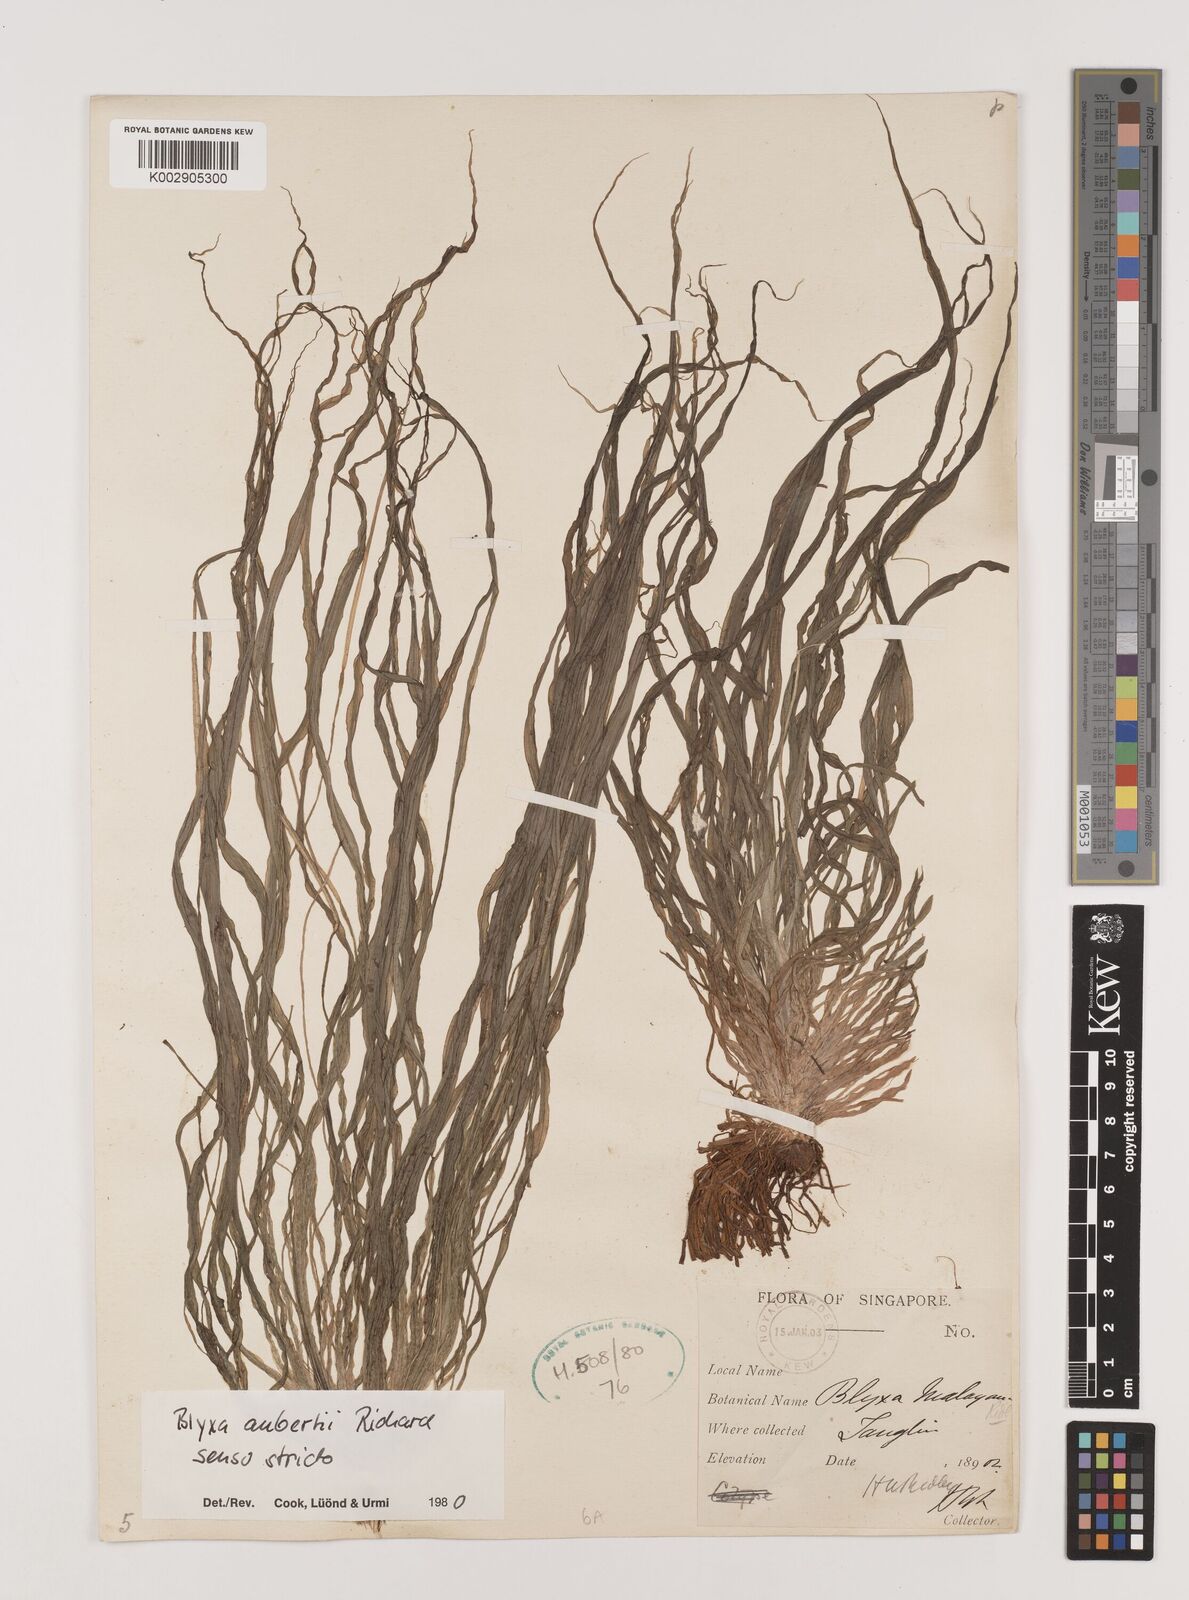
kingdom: Plantae
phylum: Tracheophyta
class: Liliopsida
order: Alismatales
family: Hydrocharitaceae
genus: Blyxa
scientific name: Blyxa aubertii
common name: Roundfruit blyxa
